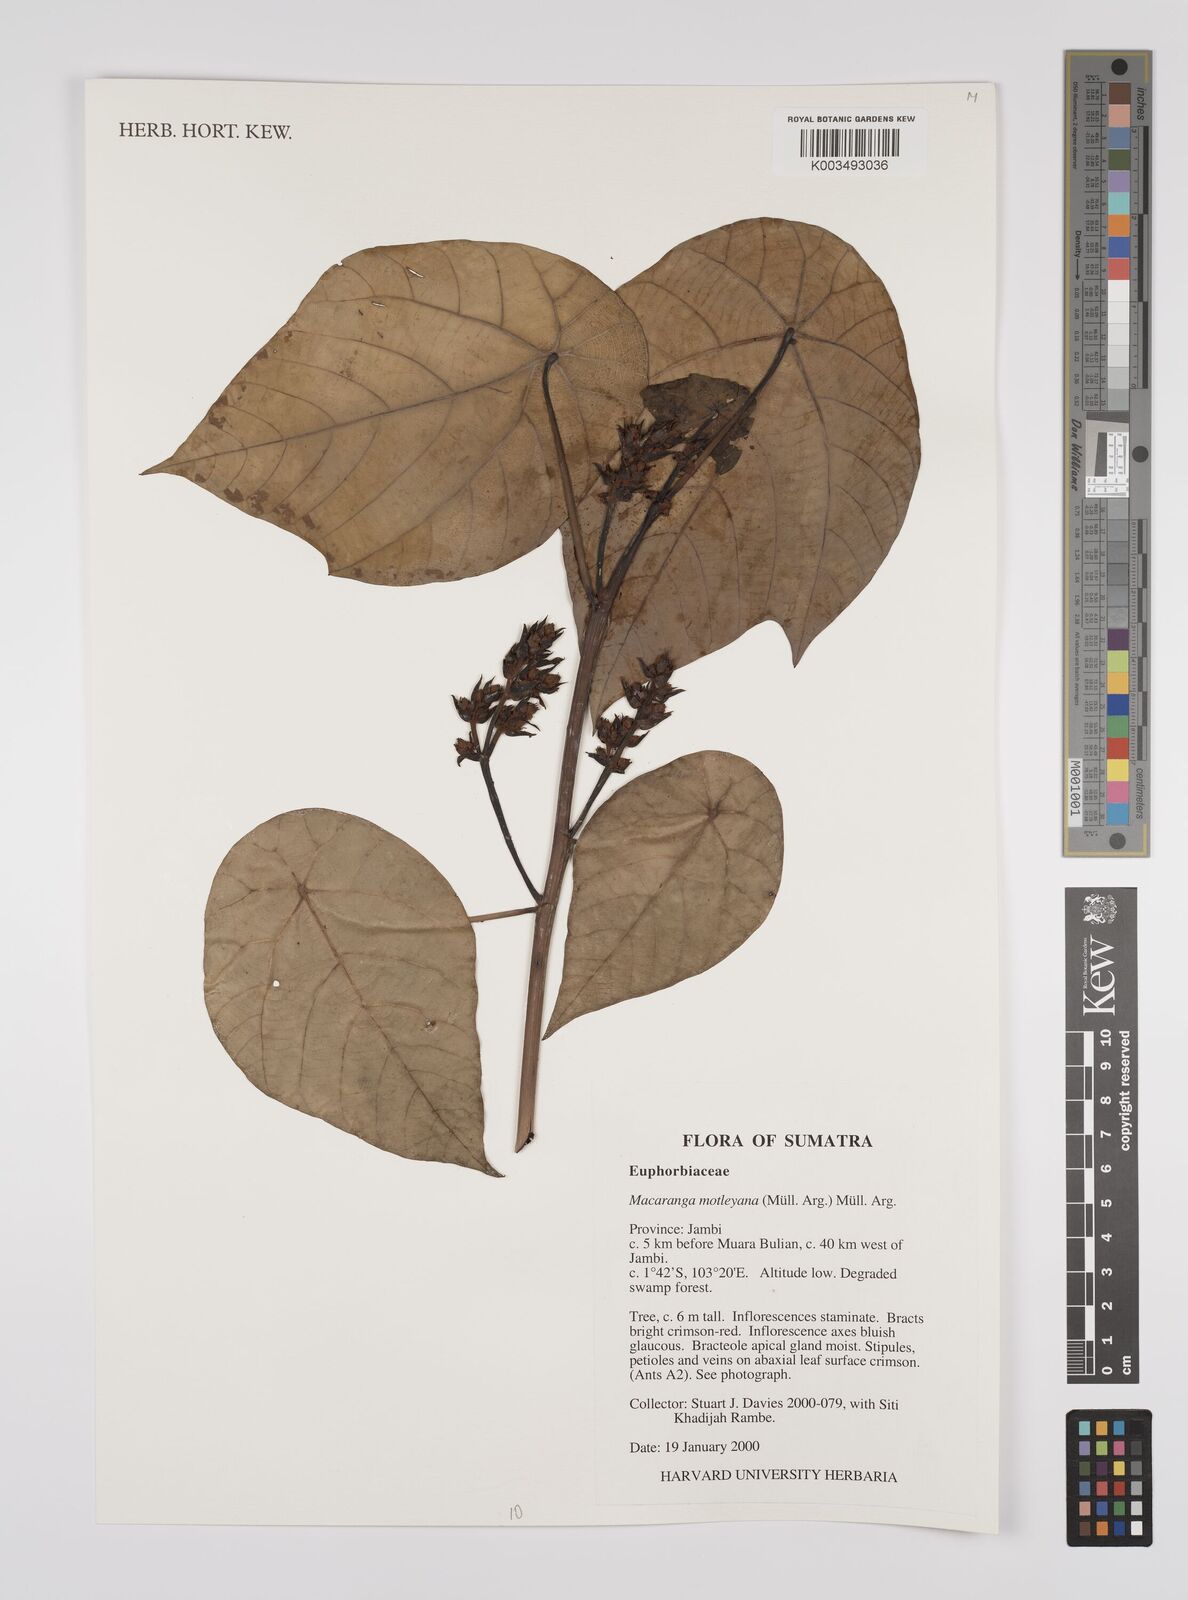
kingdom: Plantae
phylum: Tracheophyta
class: Magnoliopsida
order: Malpighiales
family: Euphorbiaceae
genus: Macaranga
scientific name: Macaranga motleyana
